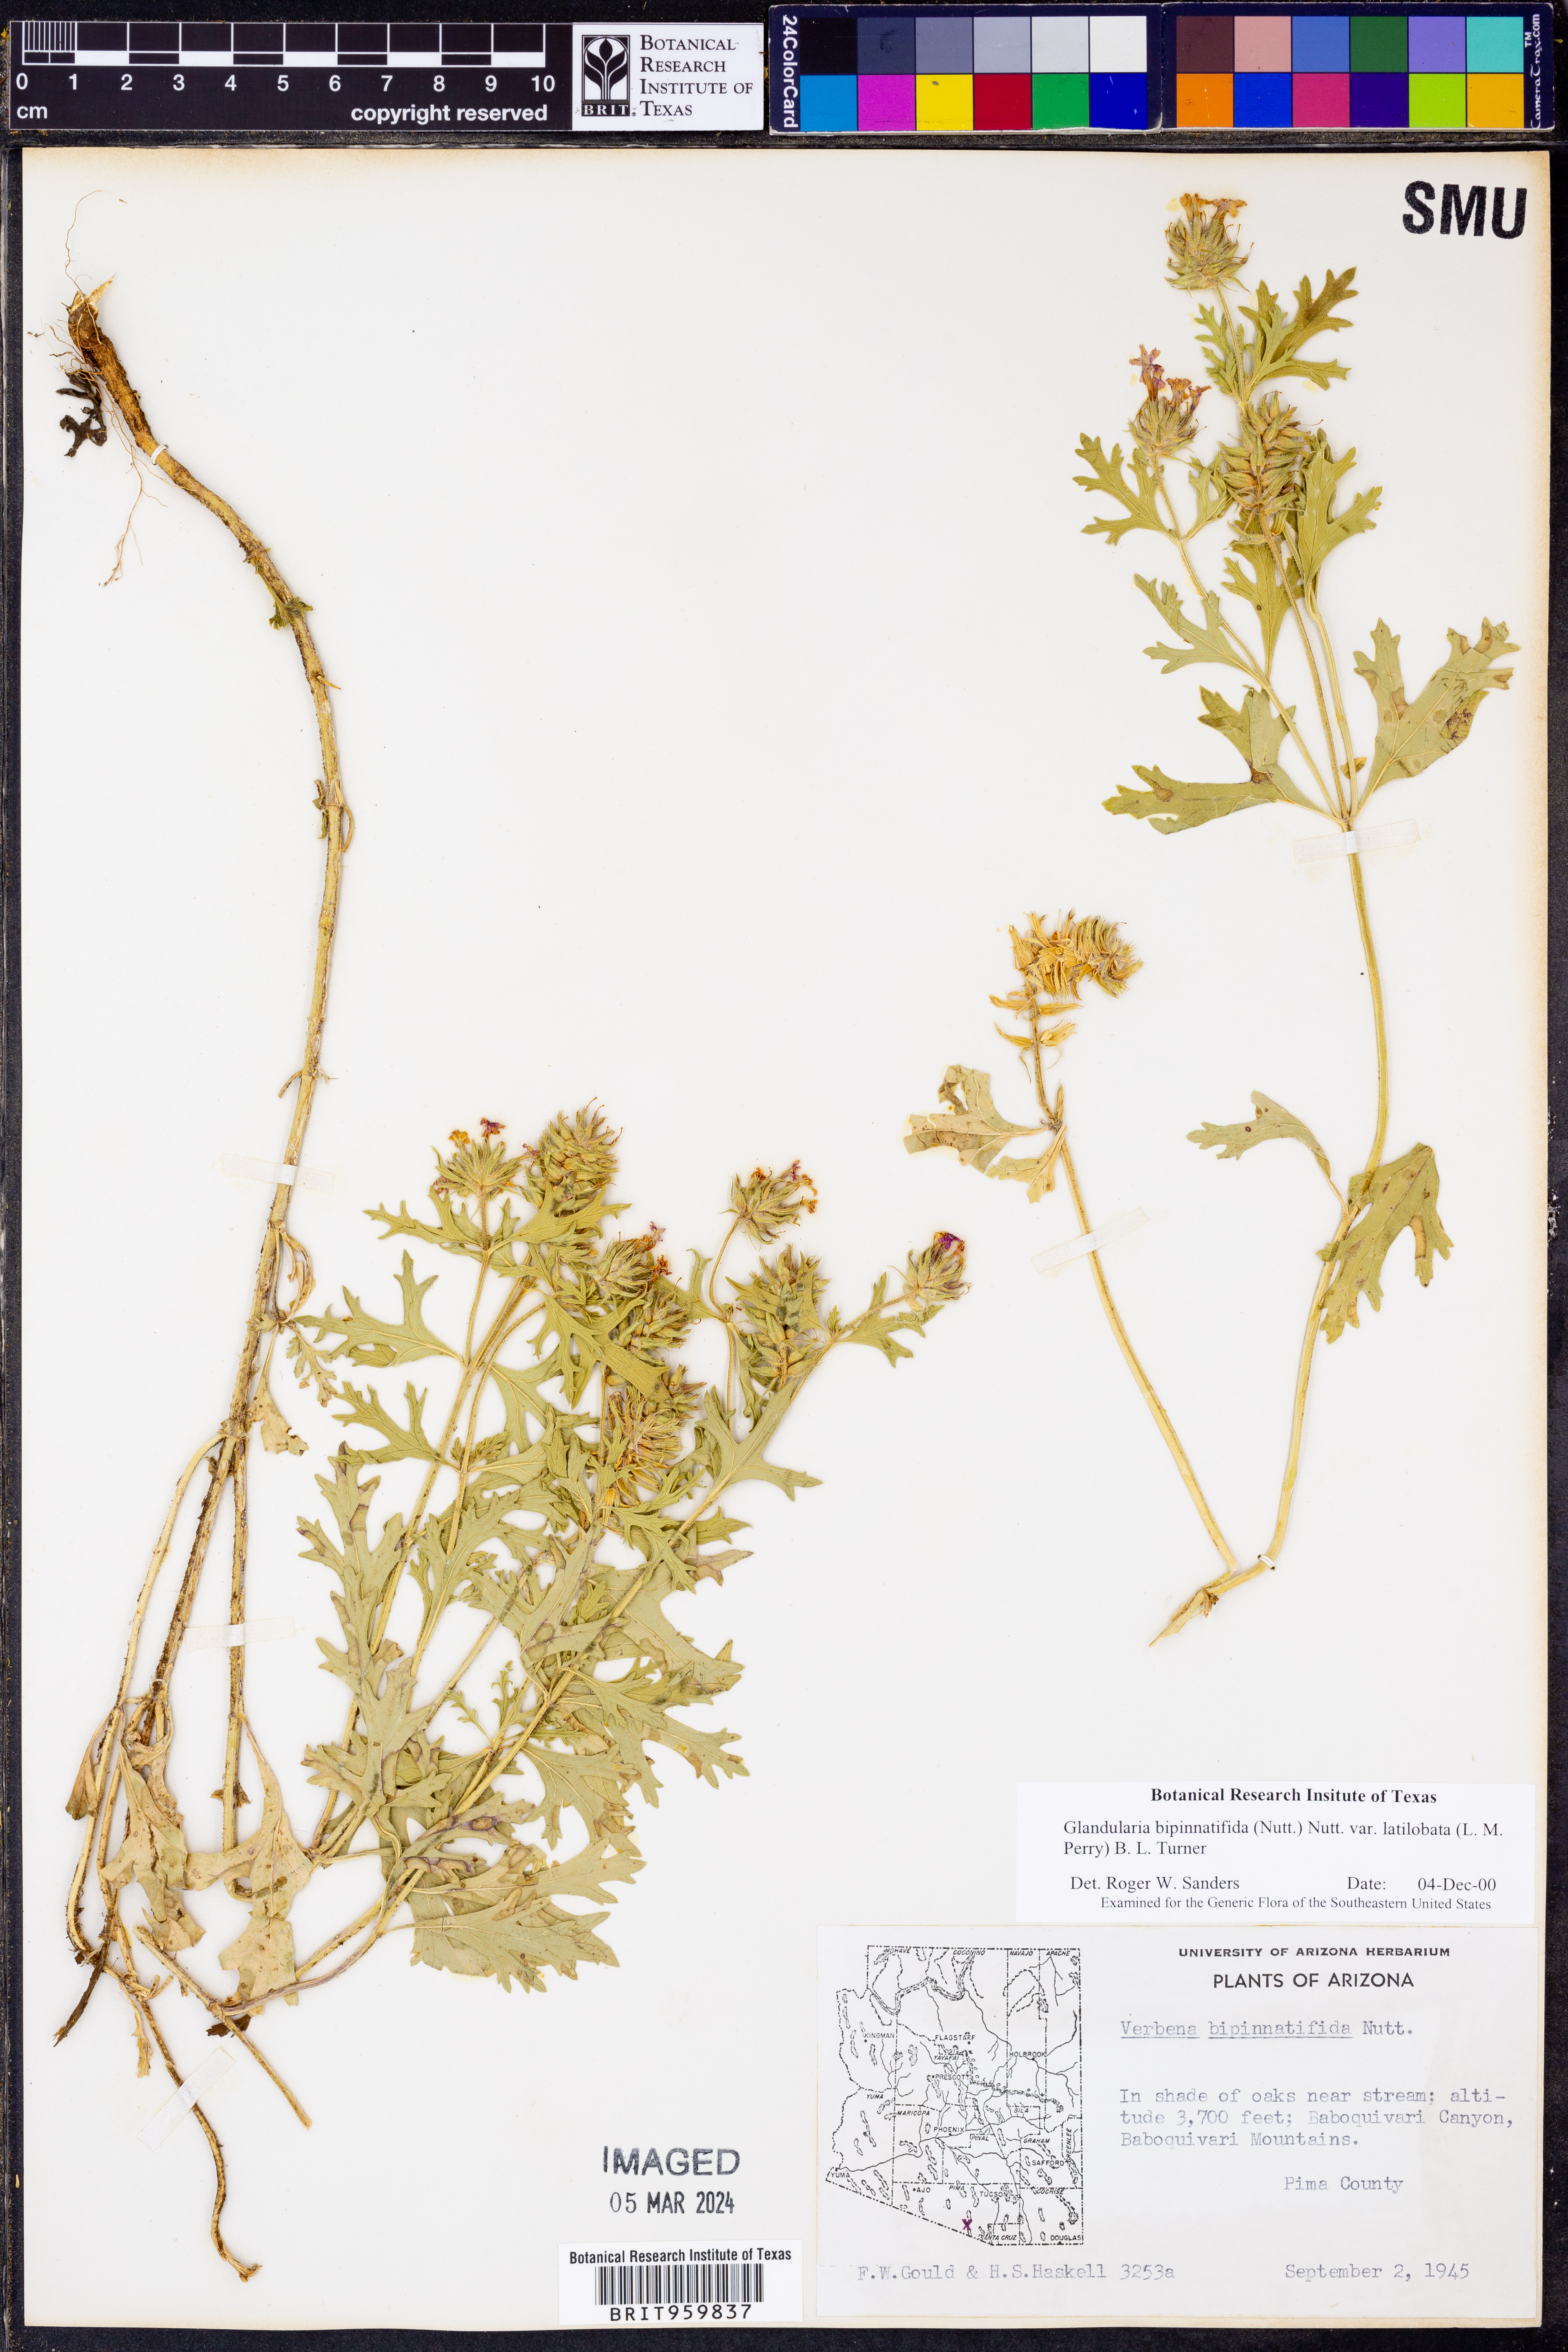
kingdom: Plantae
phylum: Tracheophyta
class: Magnoliopsida
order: Lamiales
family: Verbenaceae
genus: Verbena
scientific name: Verbena bipinnatifida
